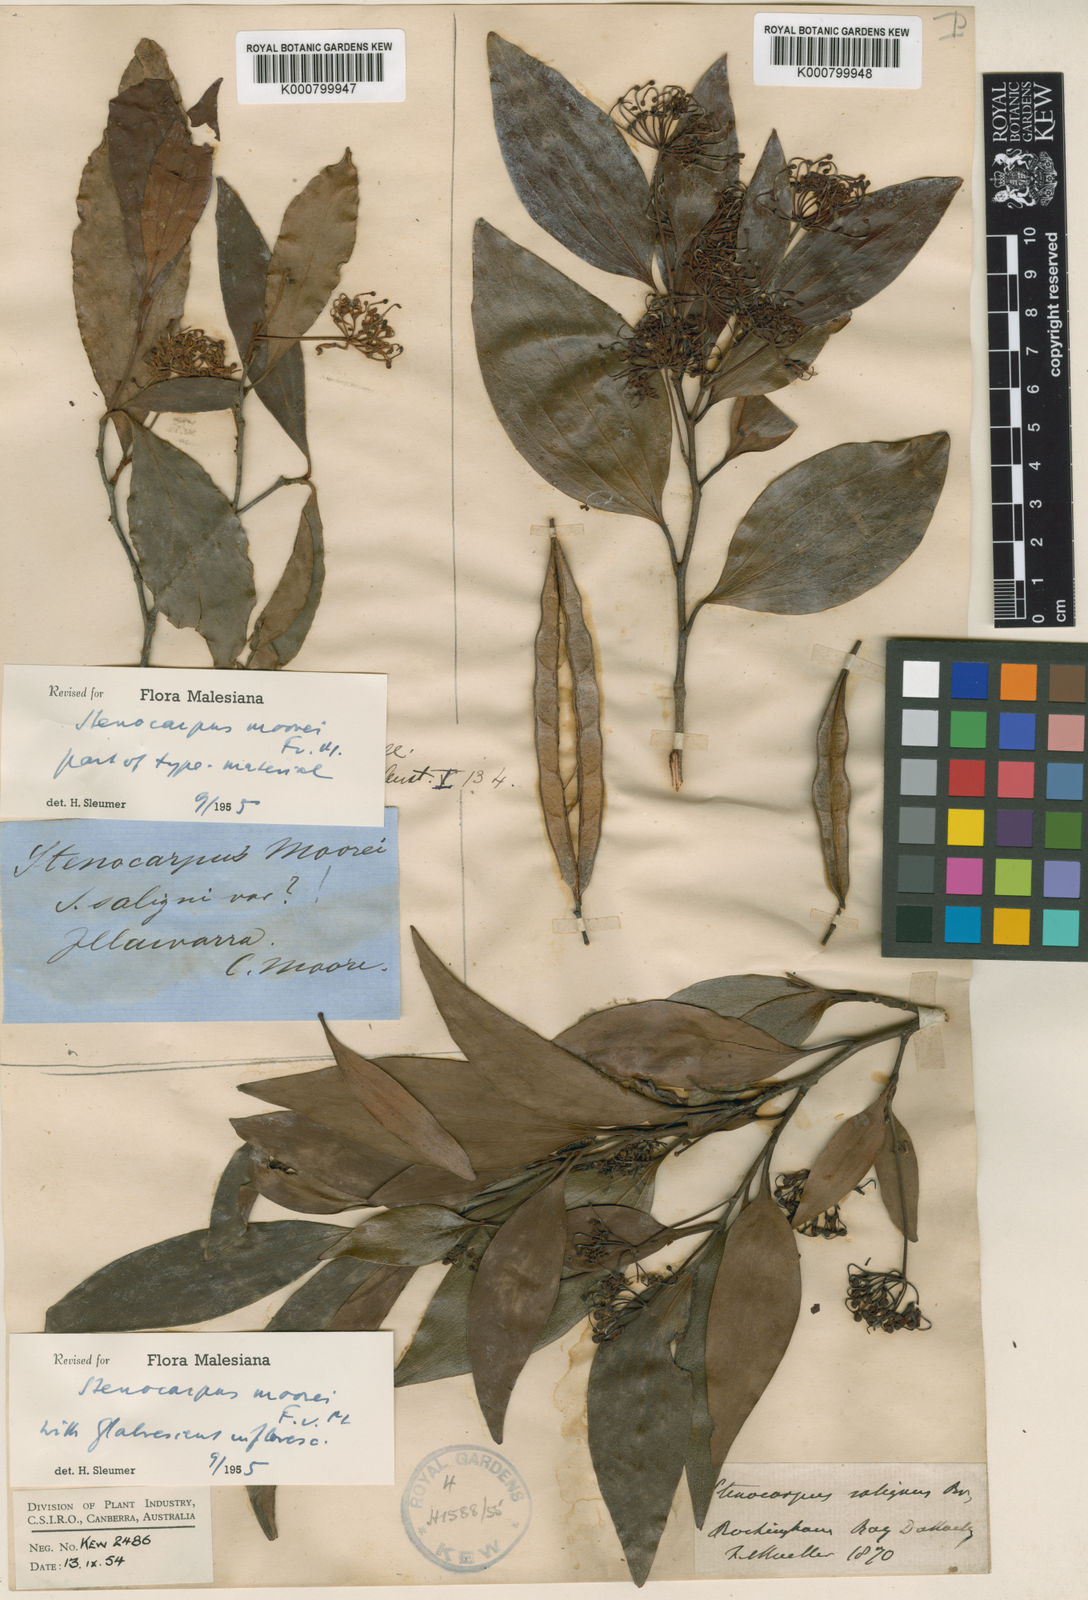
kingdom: Plantae
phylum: Tracheophyta
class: Magnoliopsida
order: Proteales
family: Proteaceae
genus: Stenocarpus
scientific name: Stenocarpus salignus
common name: Red silky-oak
